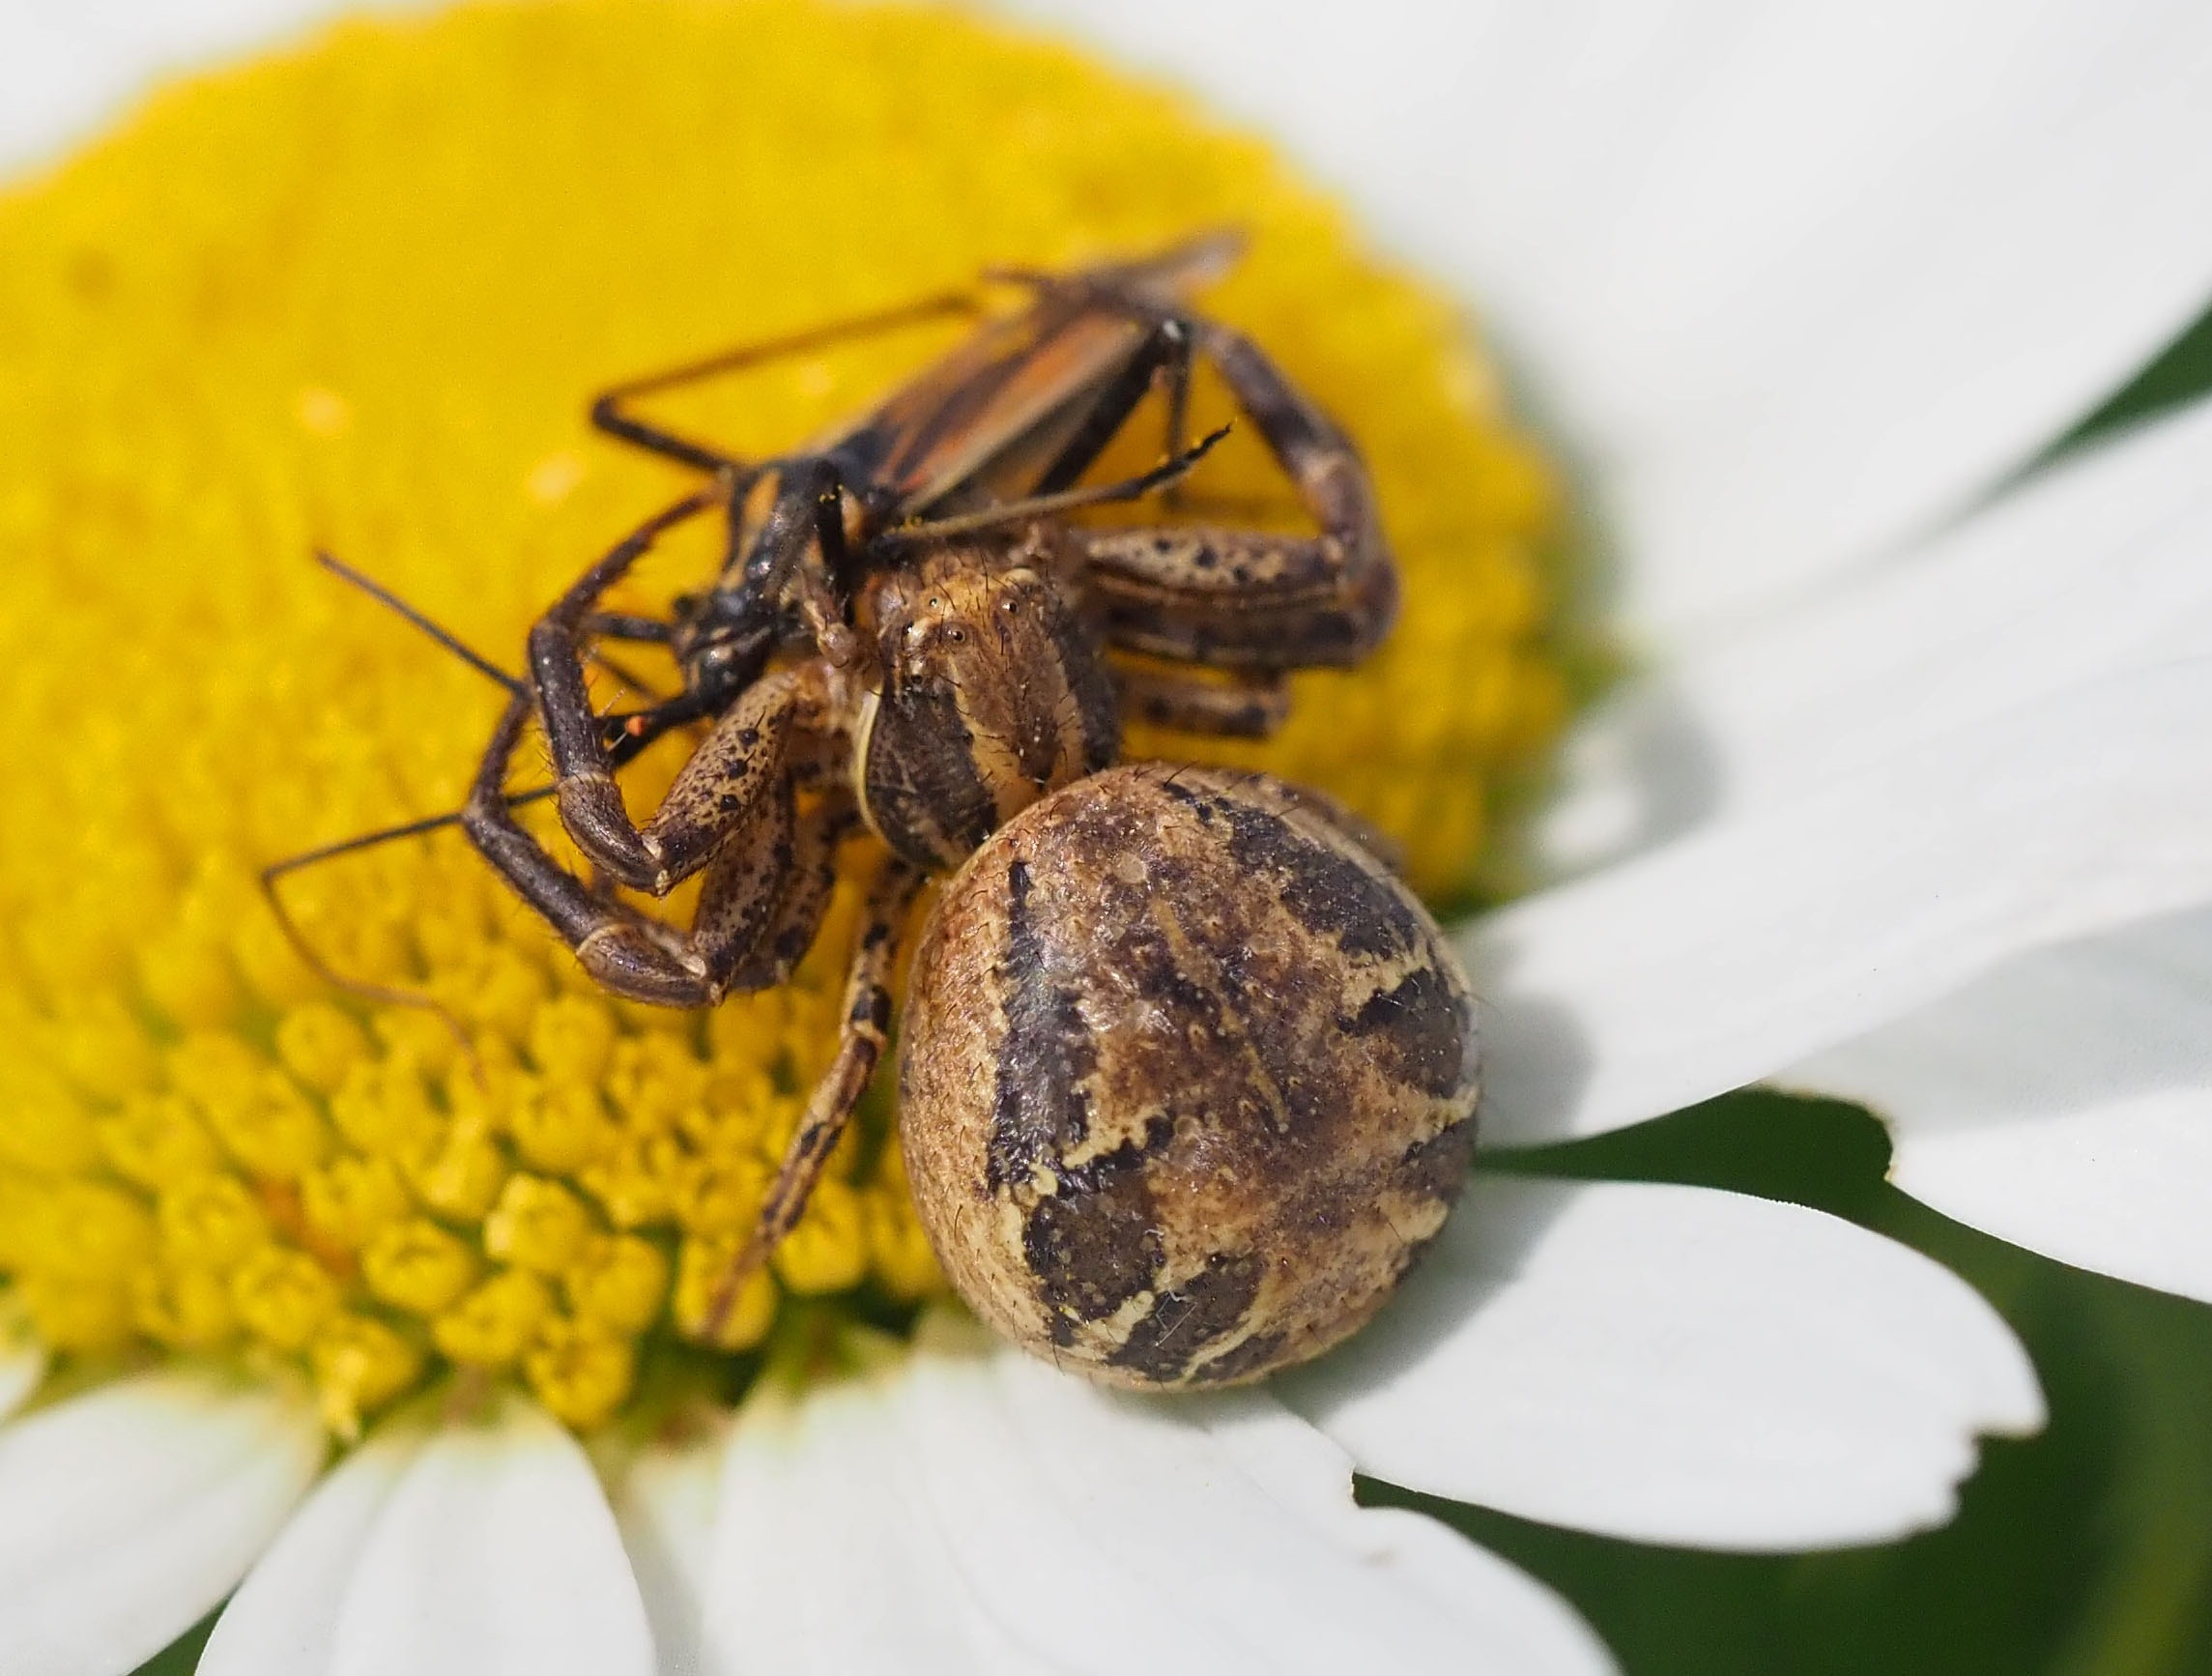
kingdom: Animalia
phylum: Arthropoda
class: Arachnida
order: Araneae
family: Thomisidae
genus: Xysticus
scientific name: Xysticus cristatus
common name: Almindelig krabbeedderkop
